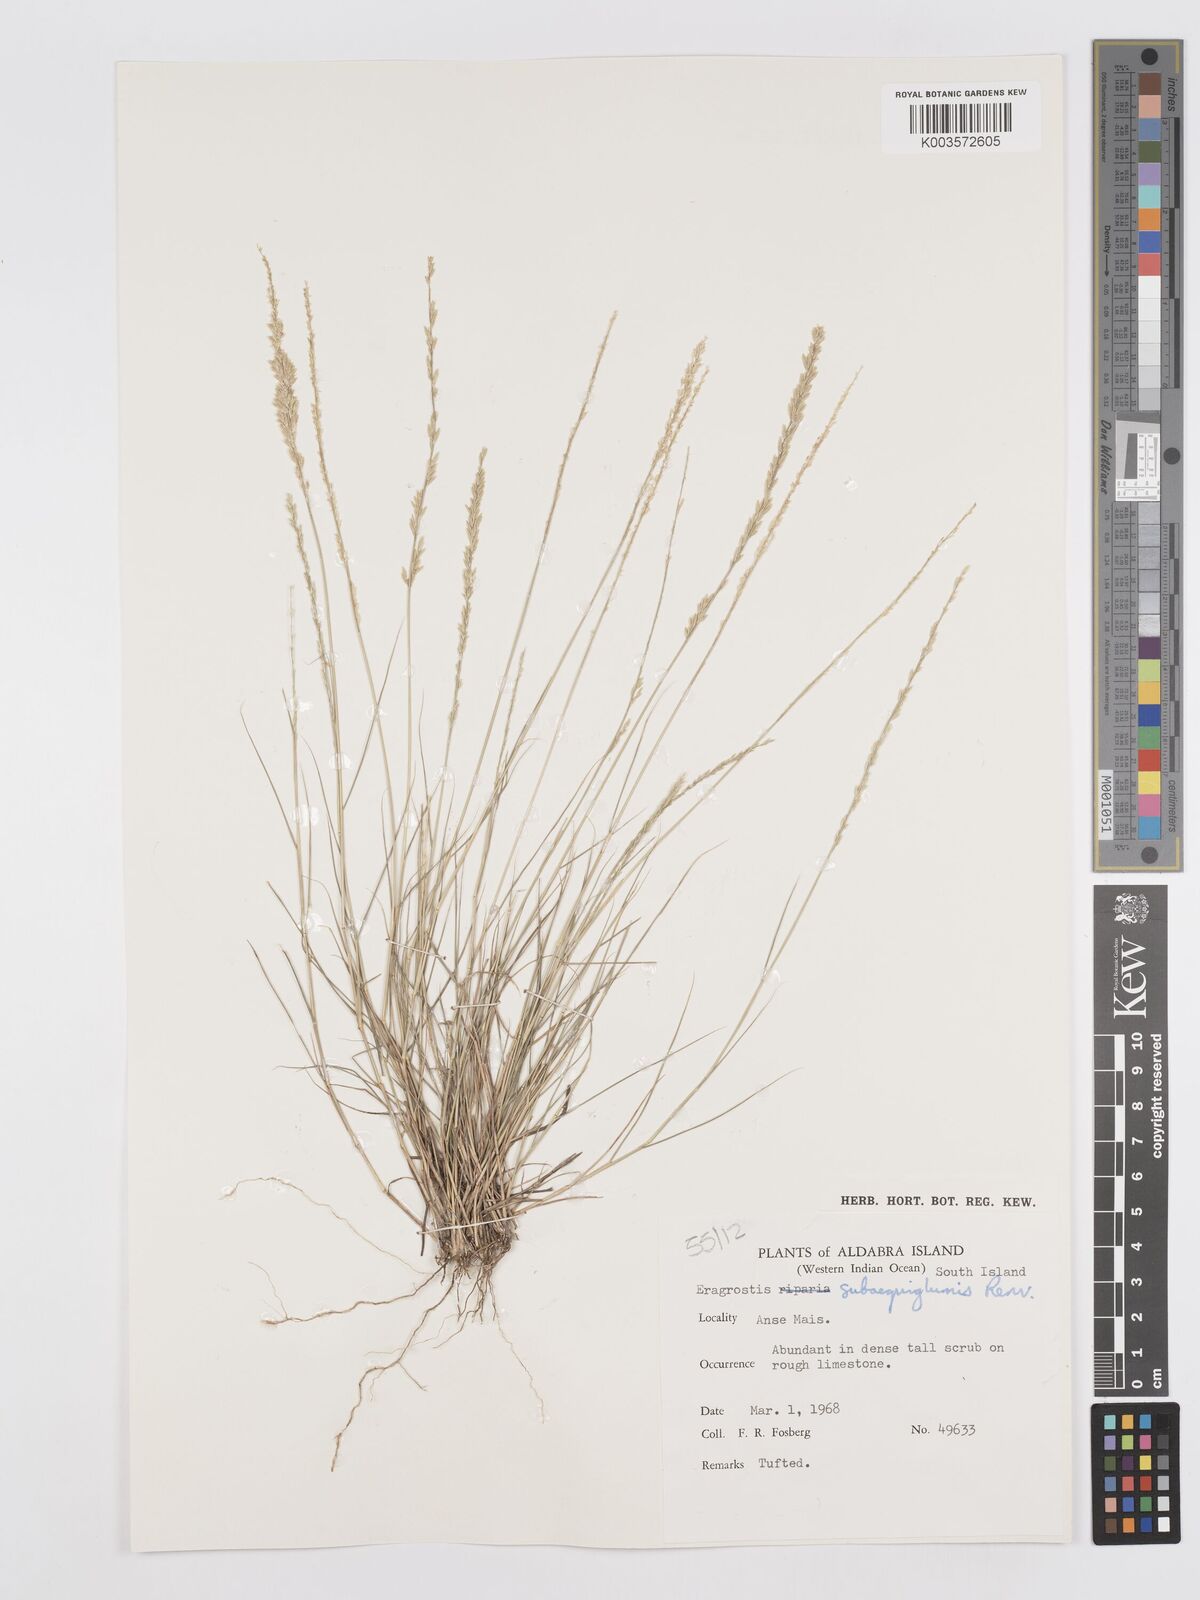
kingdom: Plantae
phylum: Tracheophyta
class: Liliopsida
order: Poales
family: Poaceae
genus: Eragrostis
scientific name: Eragrostis subaequiglumis
